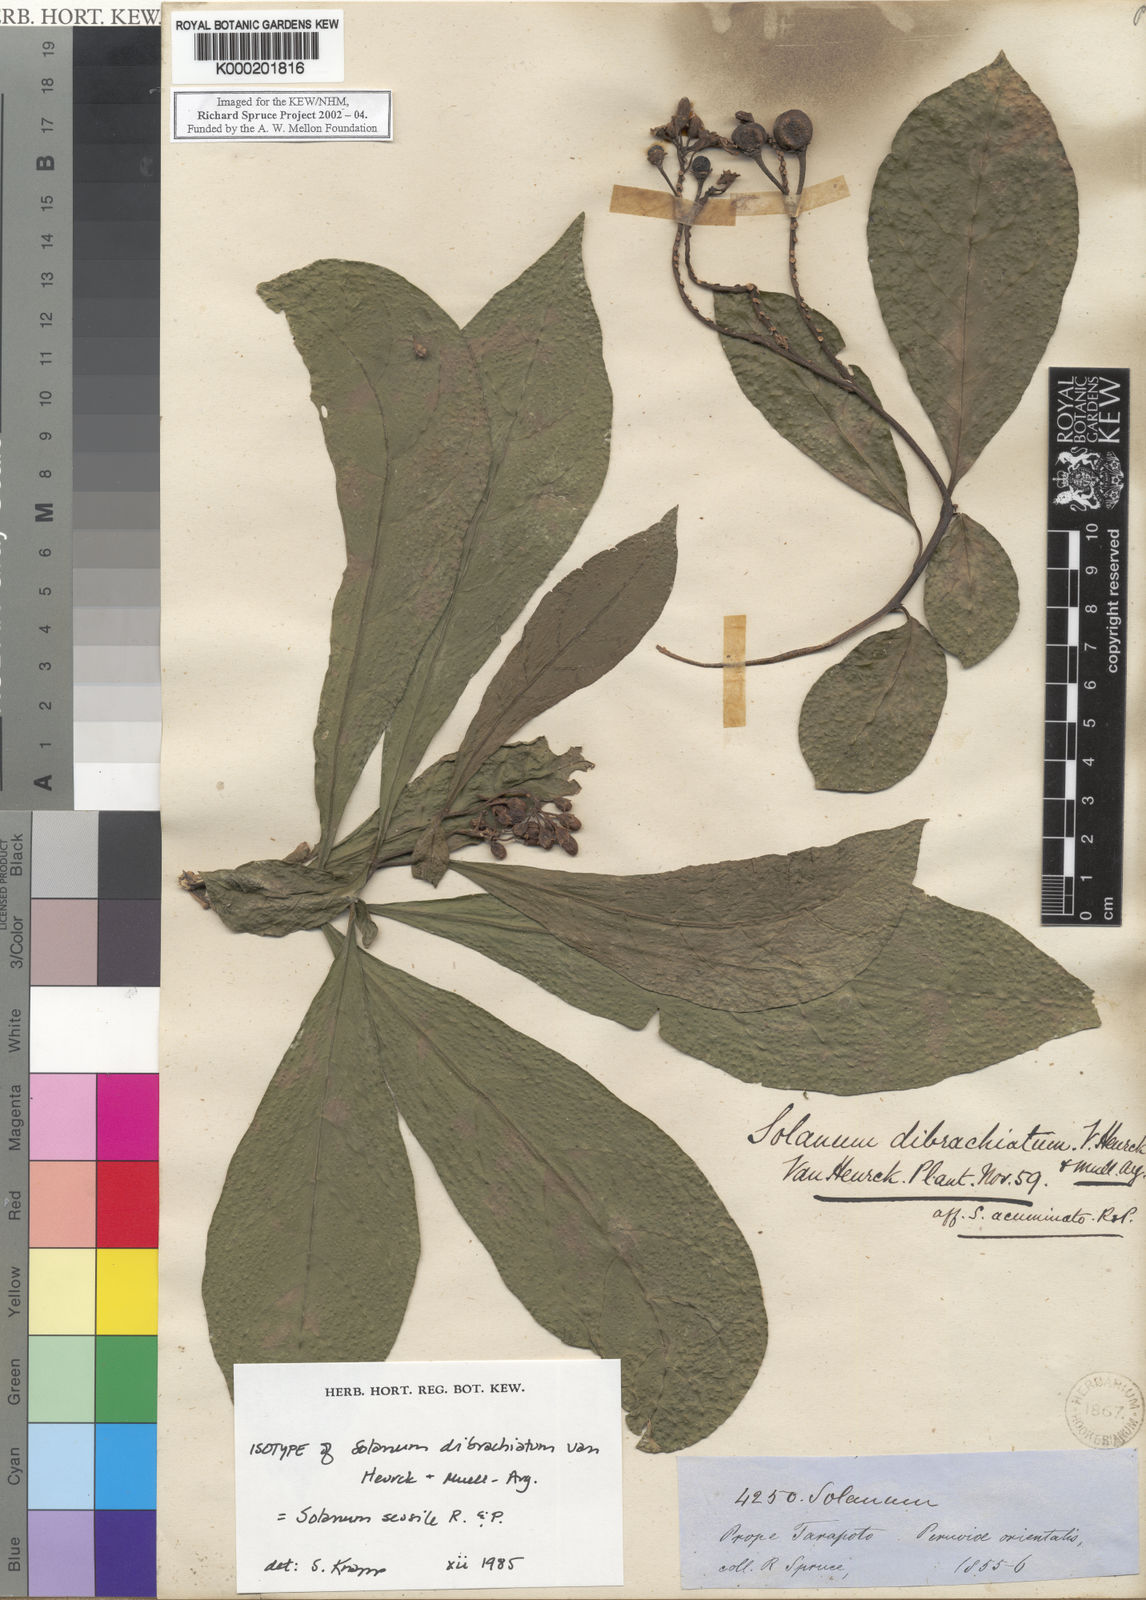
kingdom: Plantae
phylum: Tracheophyta
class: Magnoliopsida
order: Solanales
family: Solanaceae
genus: Solanum
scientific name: Solanum sessile
